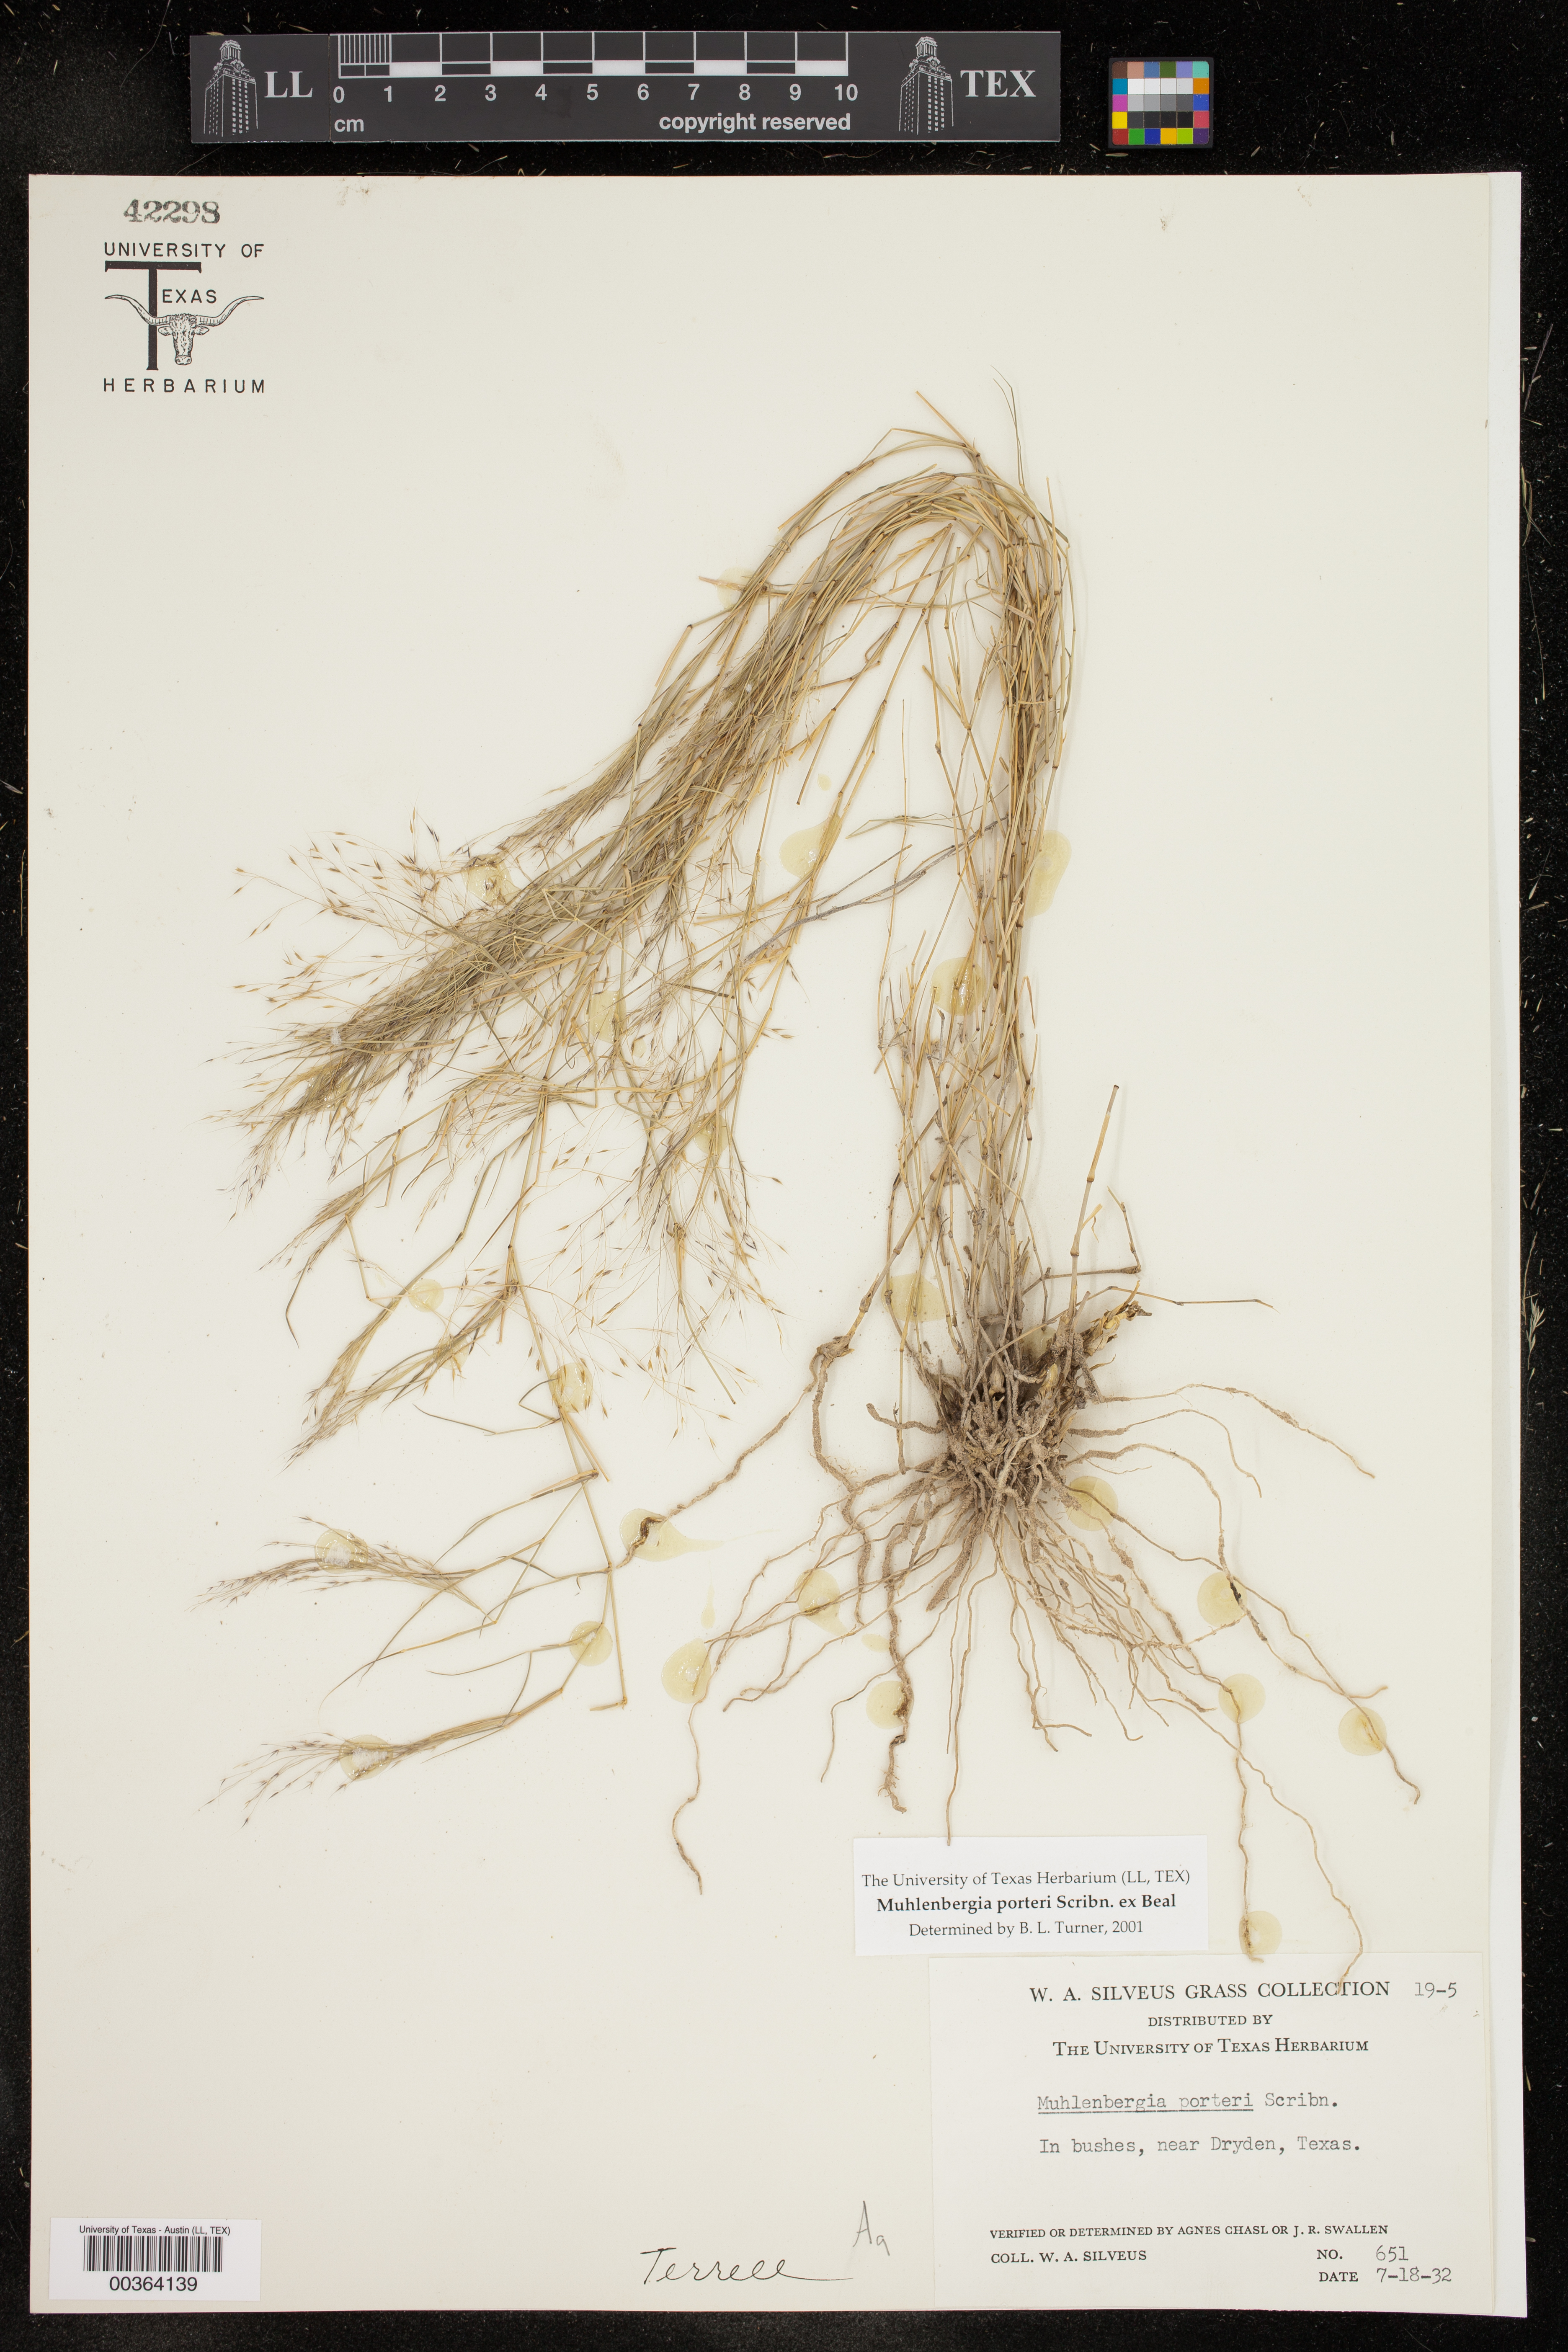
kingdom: Plantae
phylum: Tracheophyta
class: Liliopsida
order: Poales
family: Poaceae
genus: Muhlenbergia
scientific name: Muhlenbergia porteri
